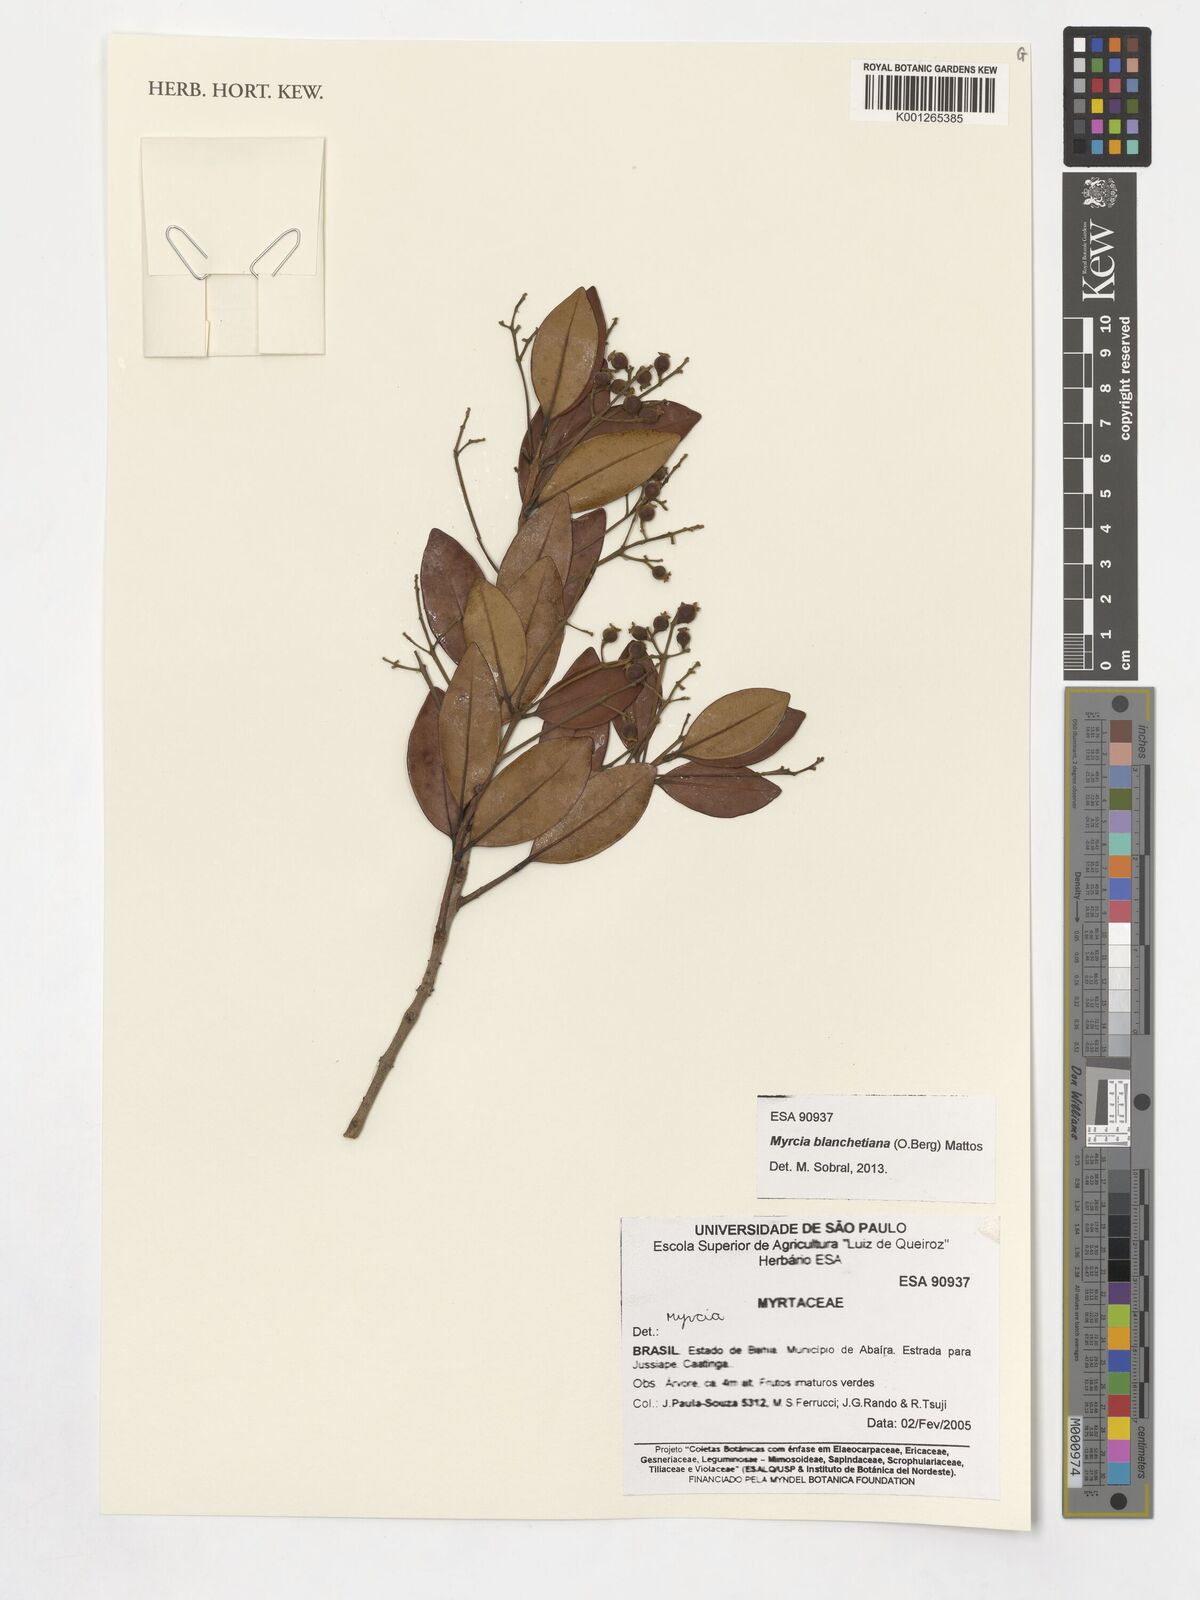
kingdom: Plantae
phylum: Tracheophyta
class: Magnoliopsida
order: Myrtales
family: Myrtaceae
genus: Myrcia
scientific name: Myrcia blanchetiana
